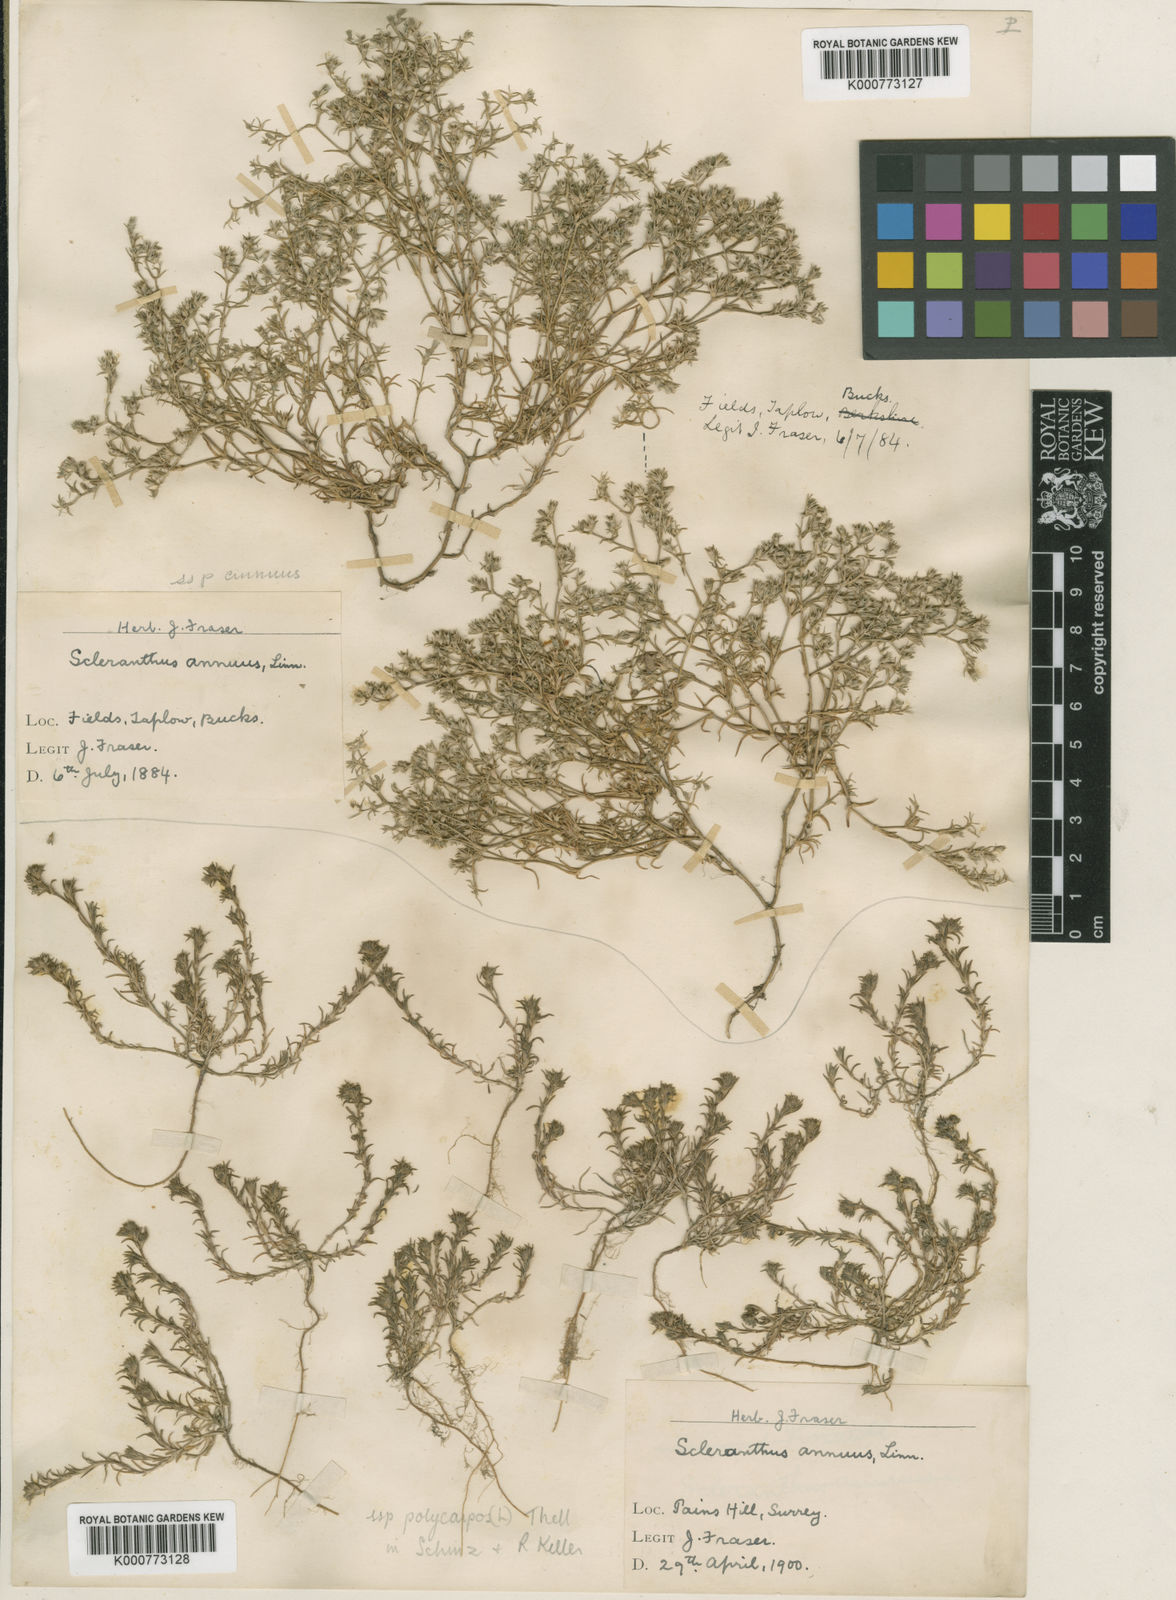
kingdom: Plantae
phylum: Tracheophyta
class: Magnoliopsida
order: Caryophyllales
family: Caryophyllaceae
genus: Scleranthus
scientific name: Scleranthus annuus
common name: Annual knawel
